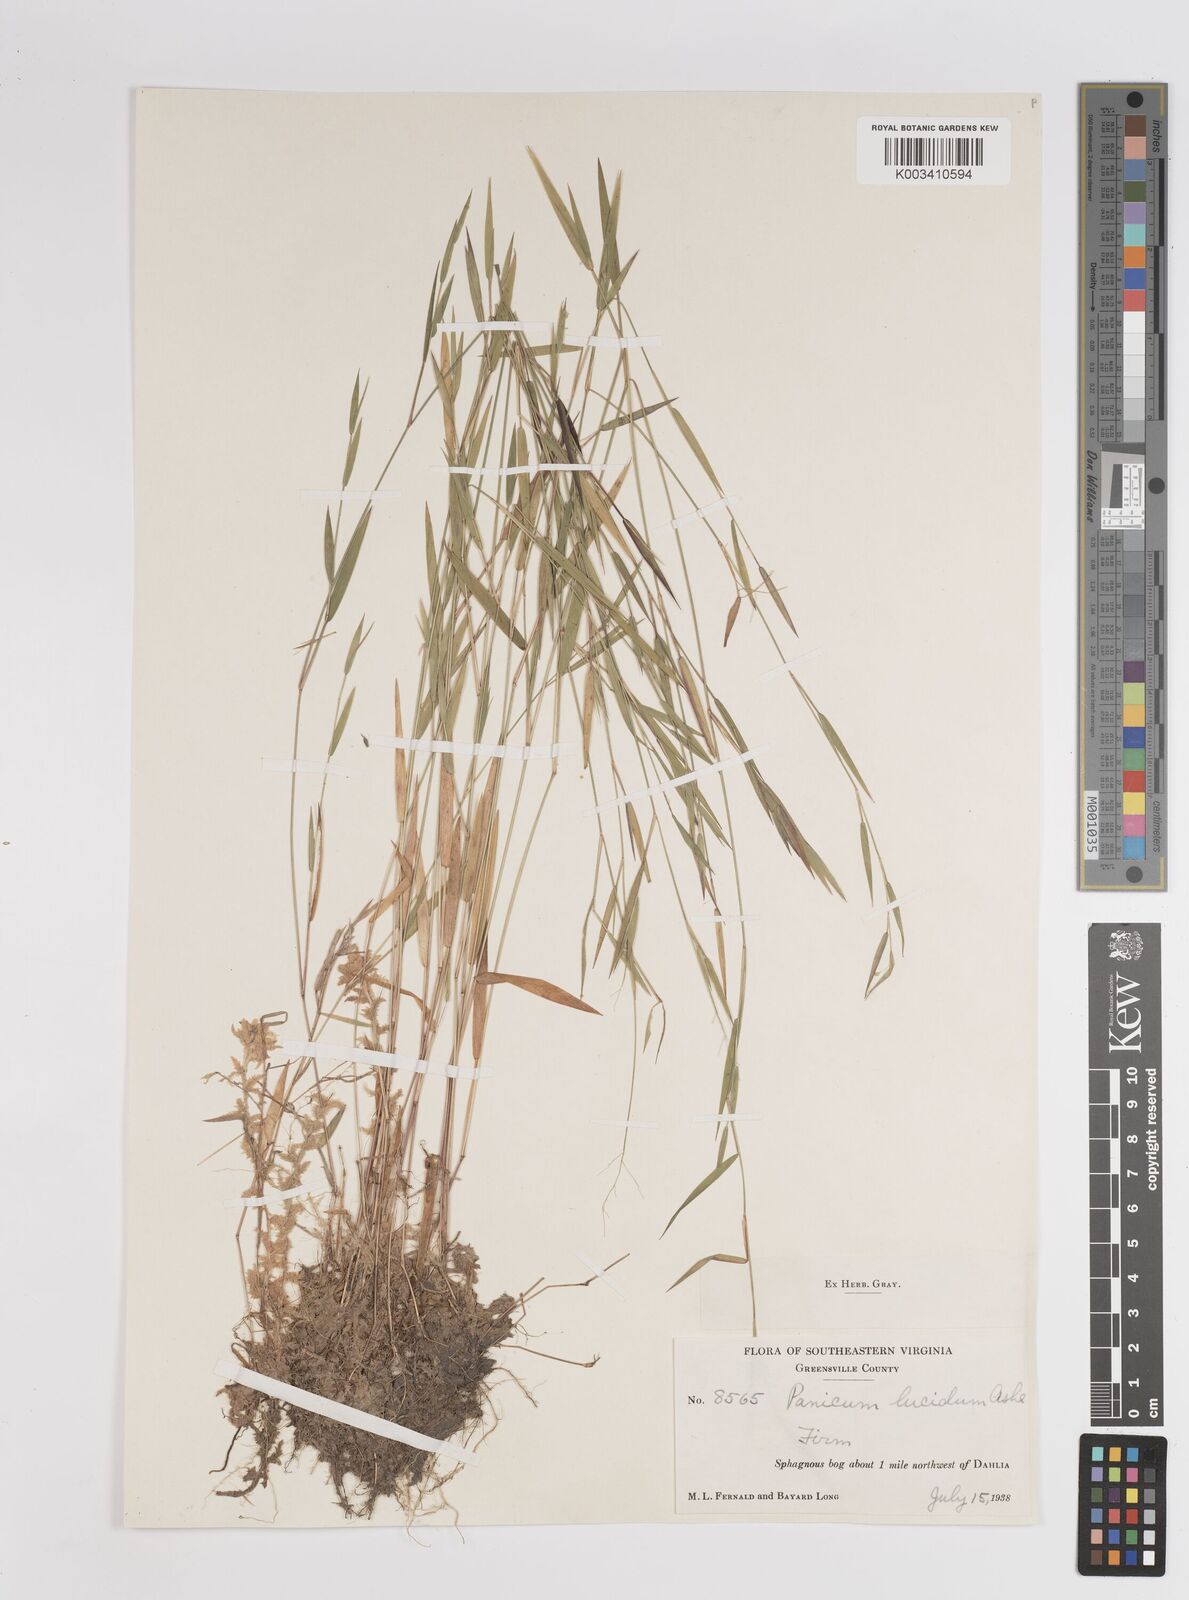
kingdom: Plantae
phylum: Tracheophyta
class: Liliopsida
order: Poales
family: Poaceae
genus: Dichanthelium
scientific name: Dichanthelium lucidum
